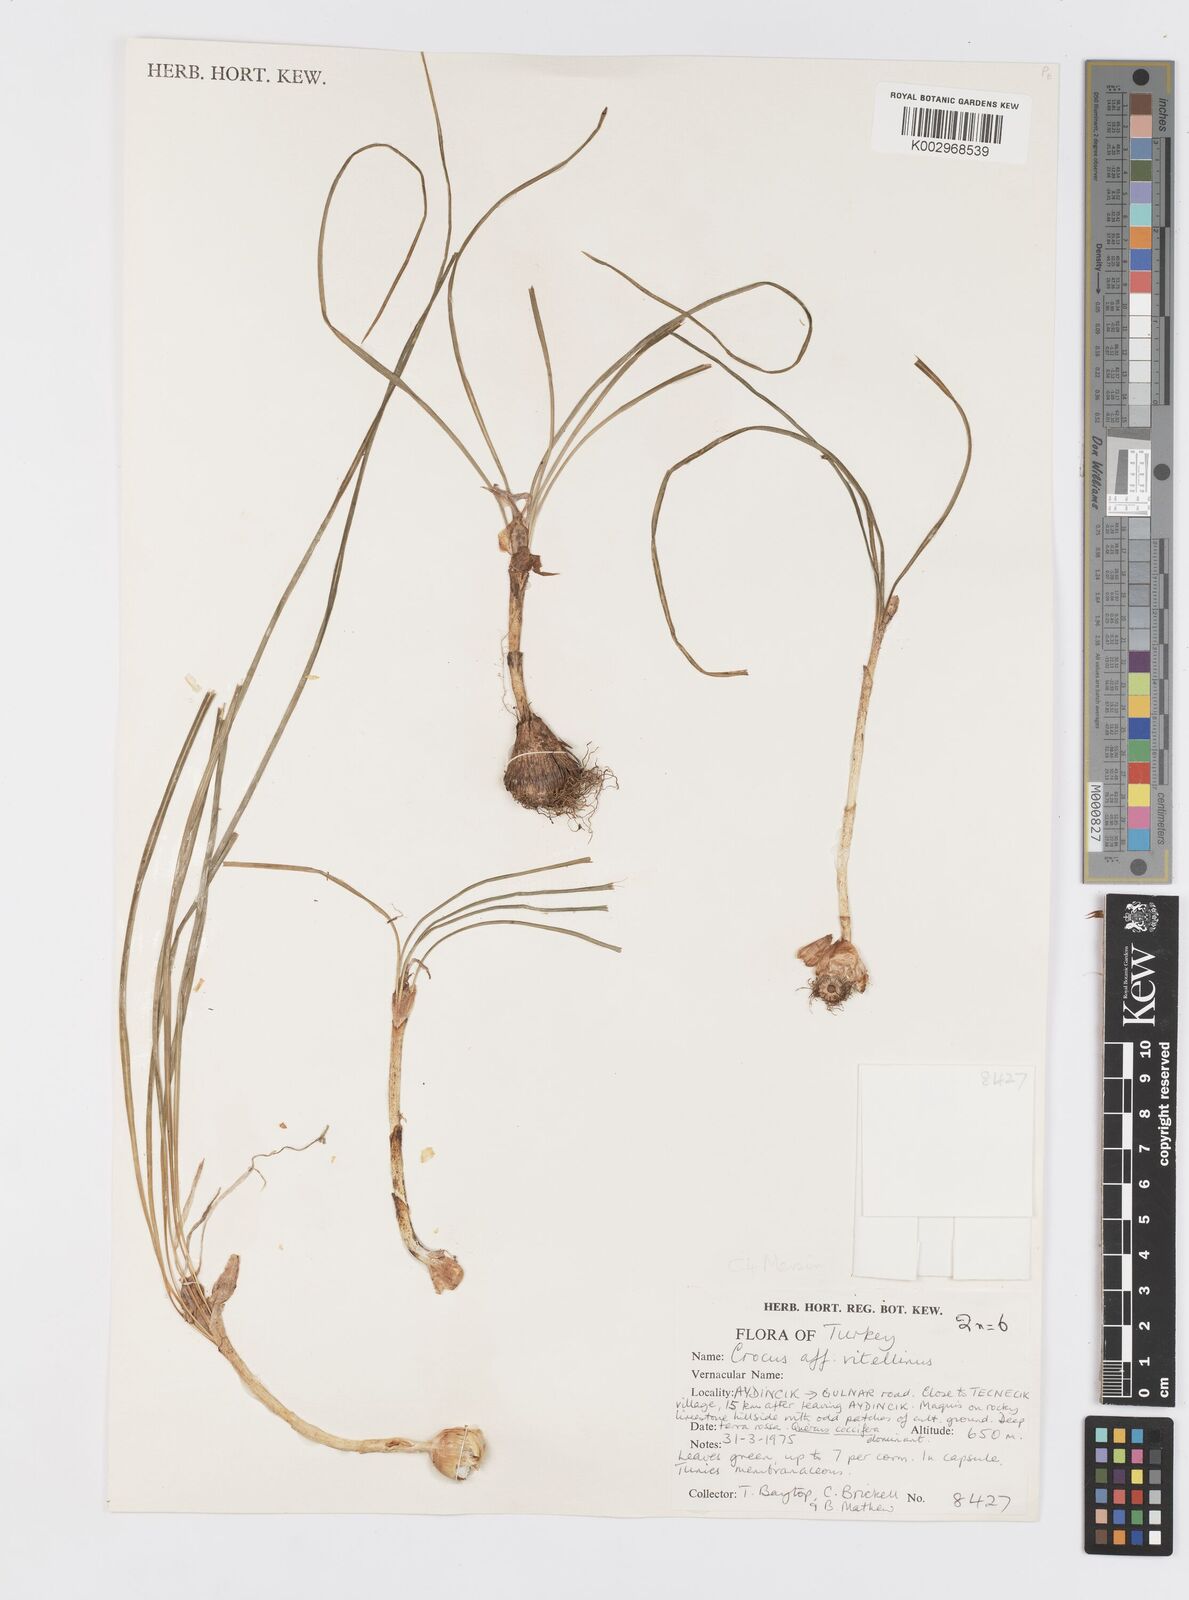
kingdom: Plantae
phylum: Tracheophyta
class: Liliopsida
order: Asparagales
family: Iridaceae
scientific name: Iridaceae
